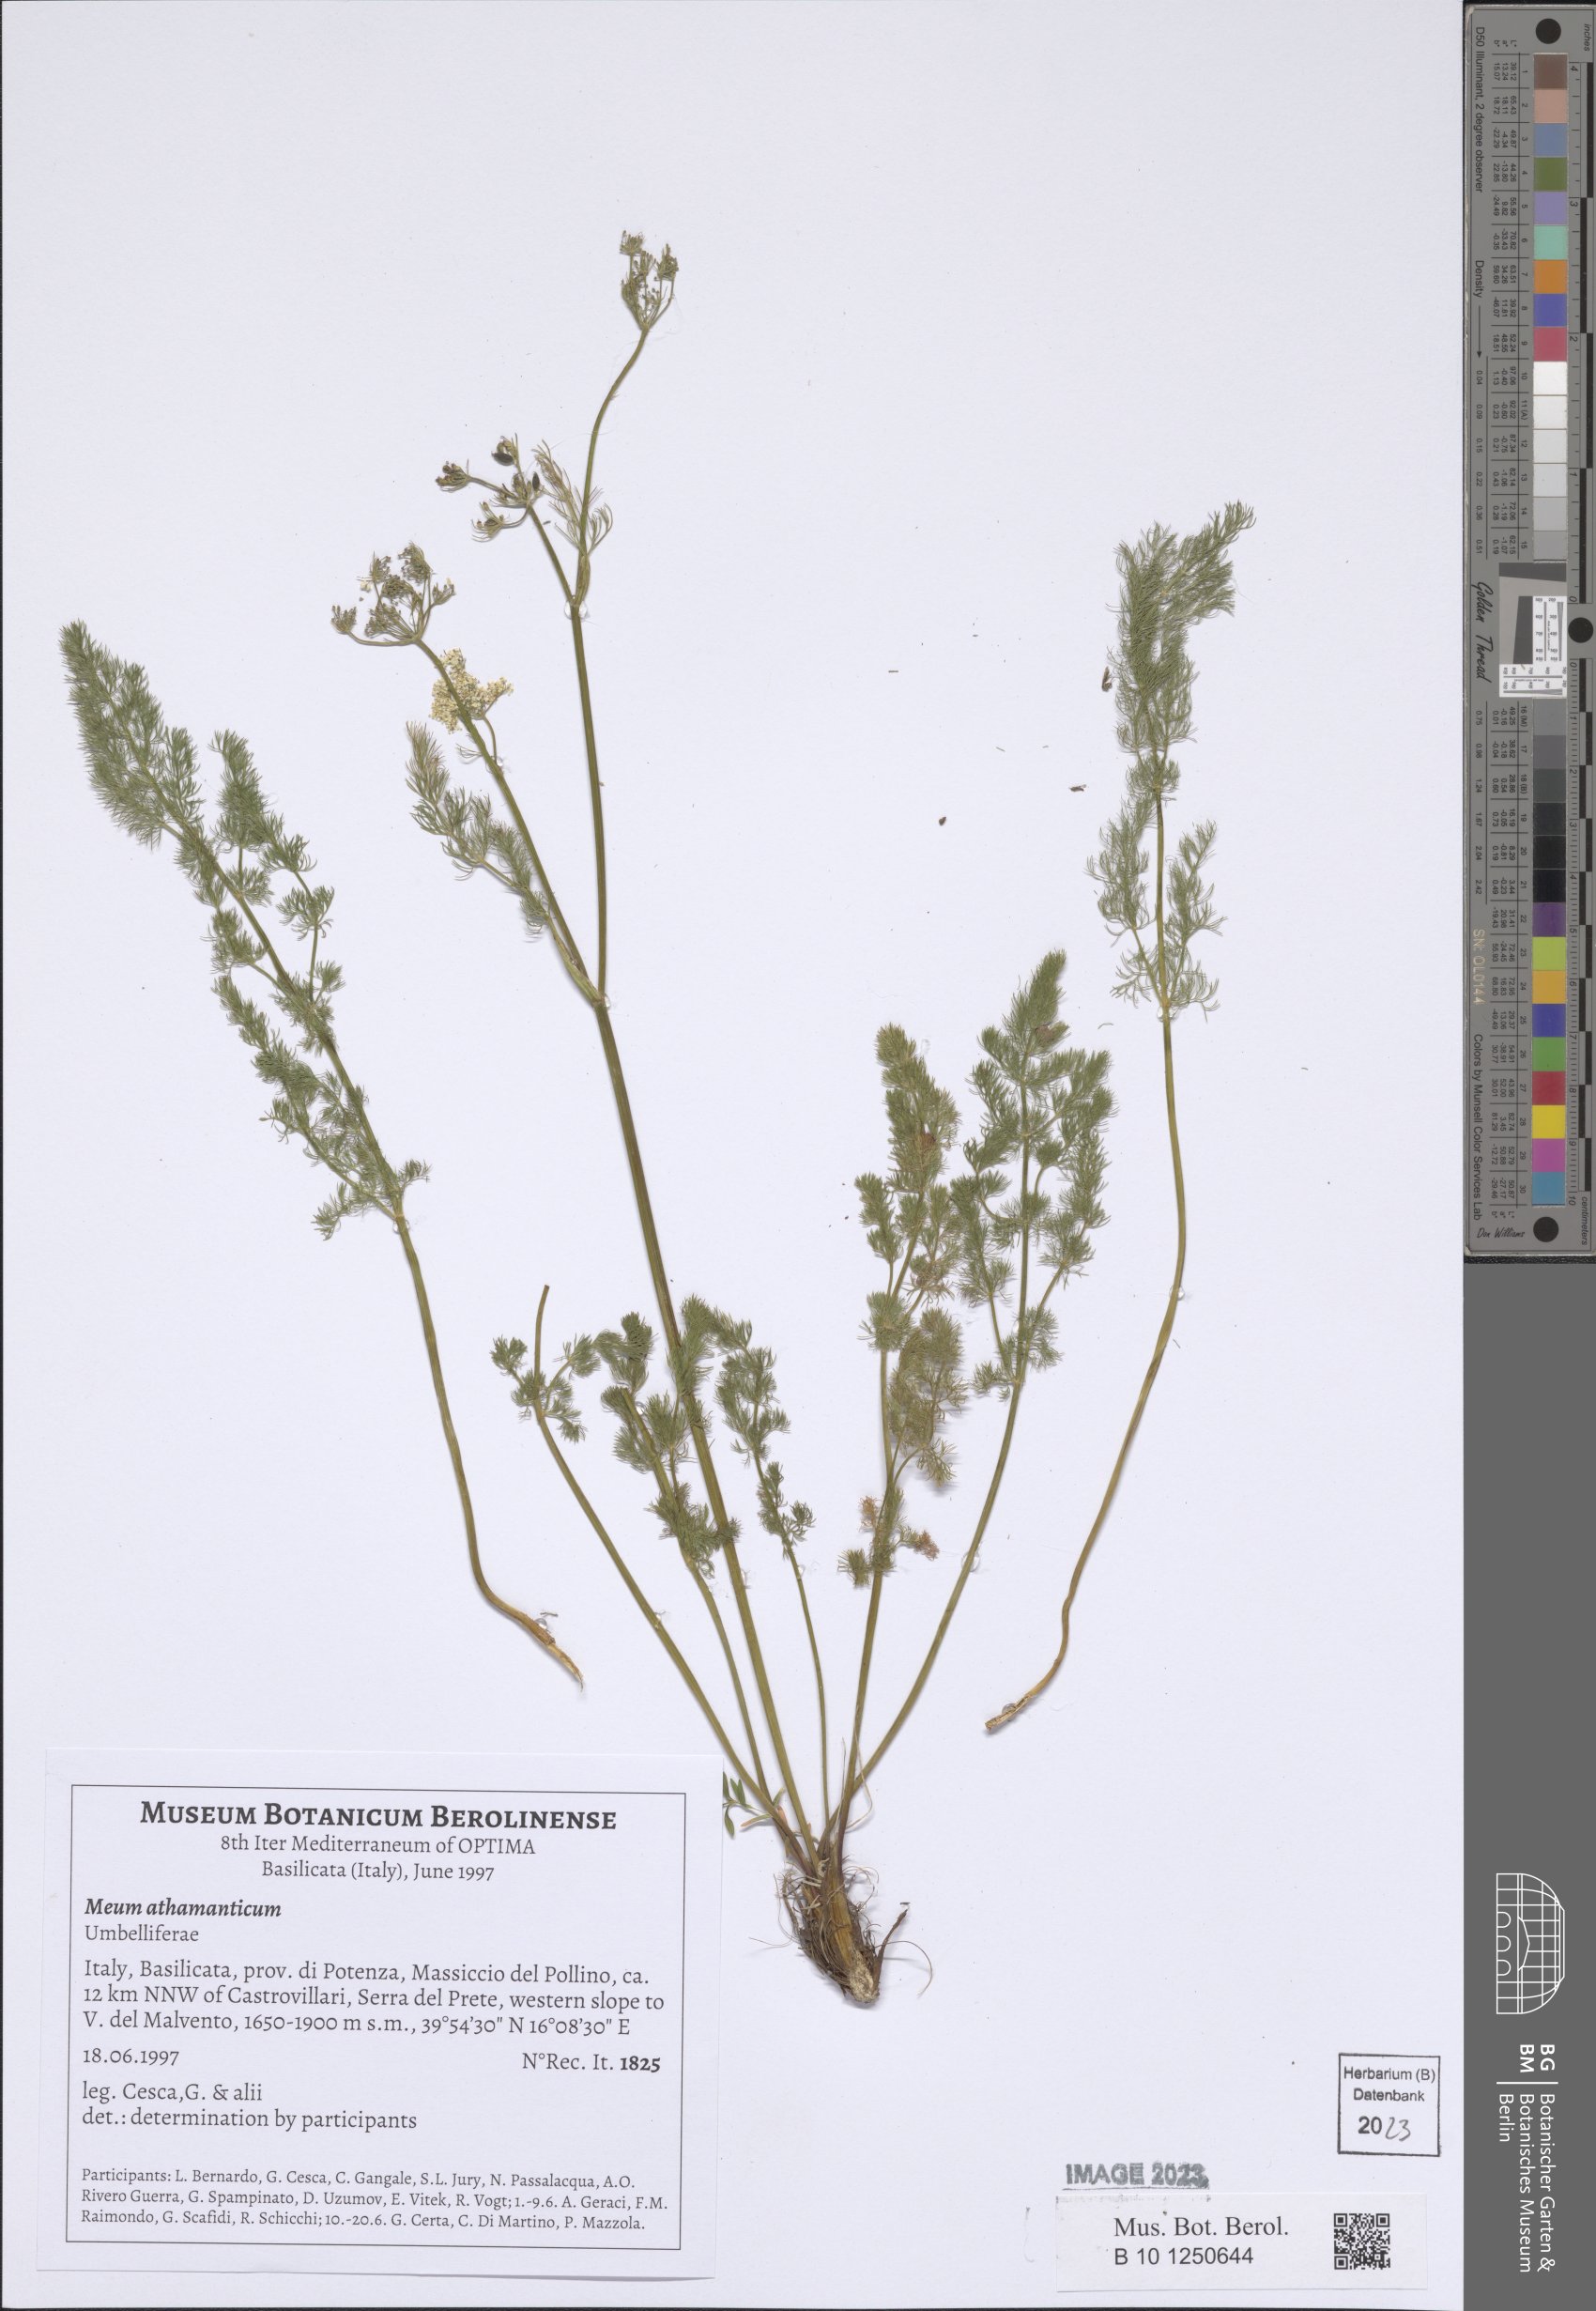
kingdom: Plantae
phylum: Tracheophyta
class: Magnoliopsida
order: Apiales
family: Apiaceae
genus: Meum
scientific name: Meum athamanticum
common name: Spignel
